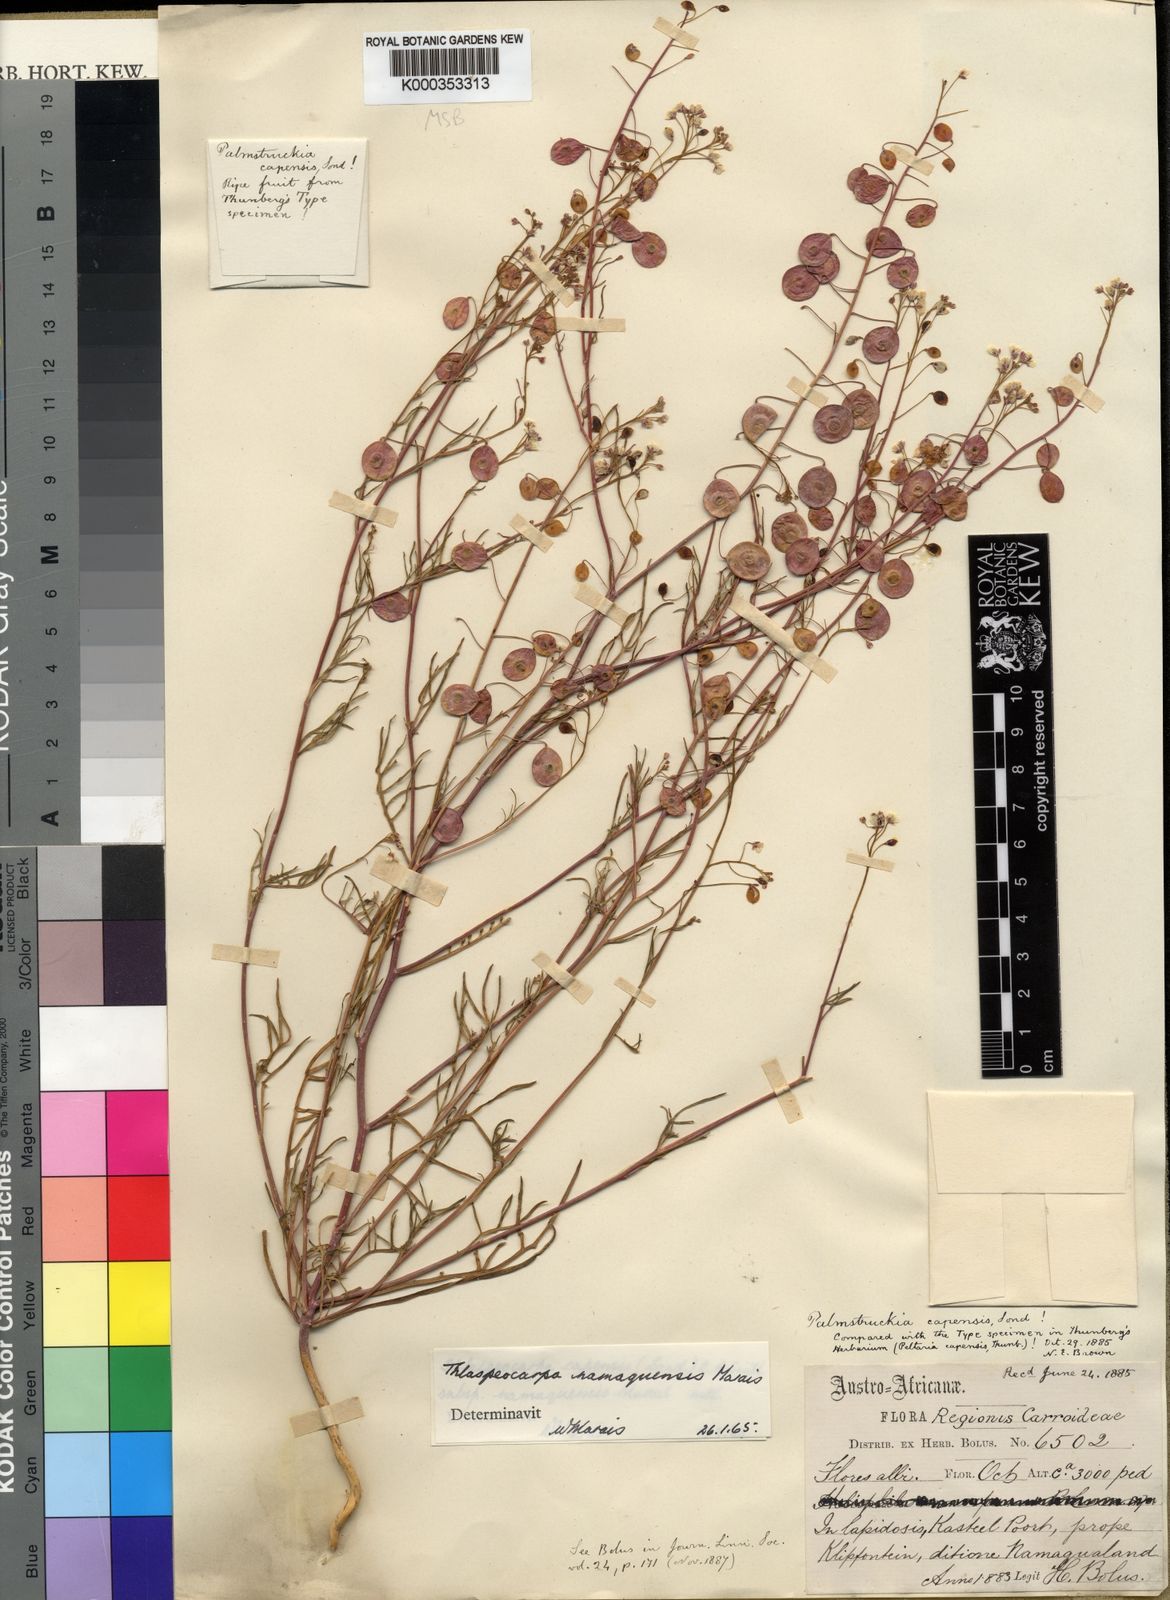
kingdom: Plantae
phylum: Tracheophyta
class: Magnoliopsida
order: Brassicales
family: Brassicaceae
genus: Heliophila
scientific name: Heliophila namaquensis
